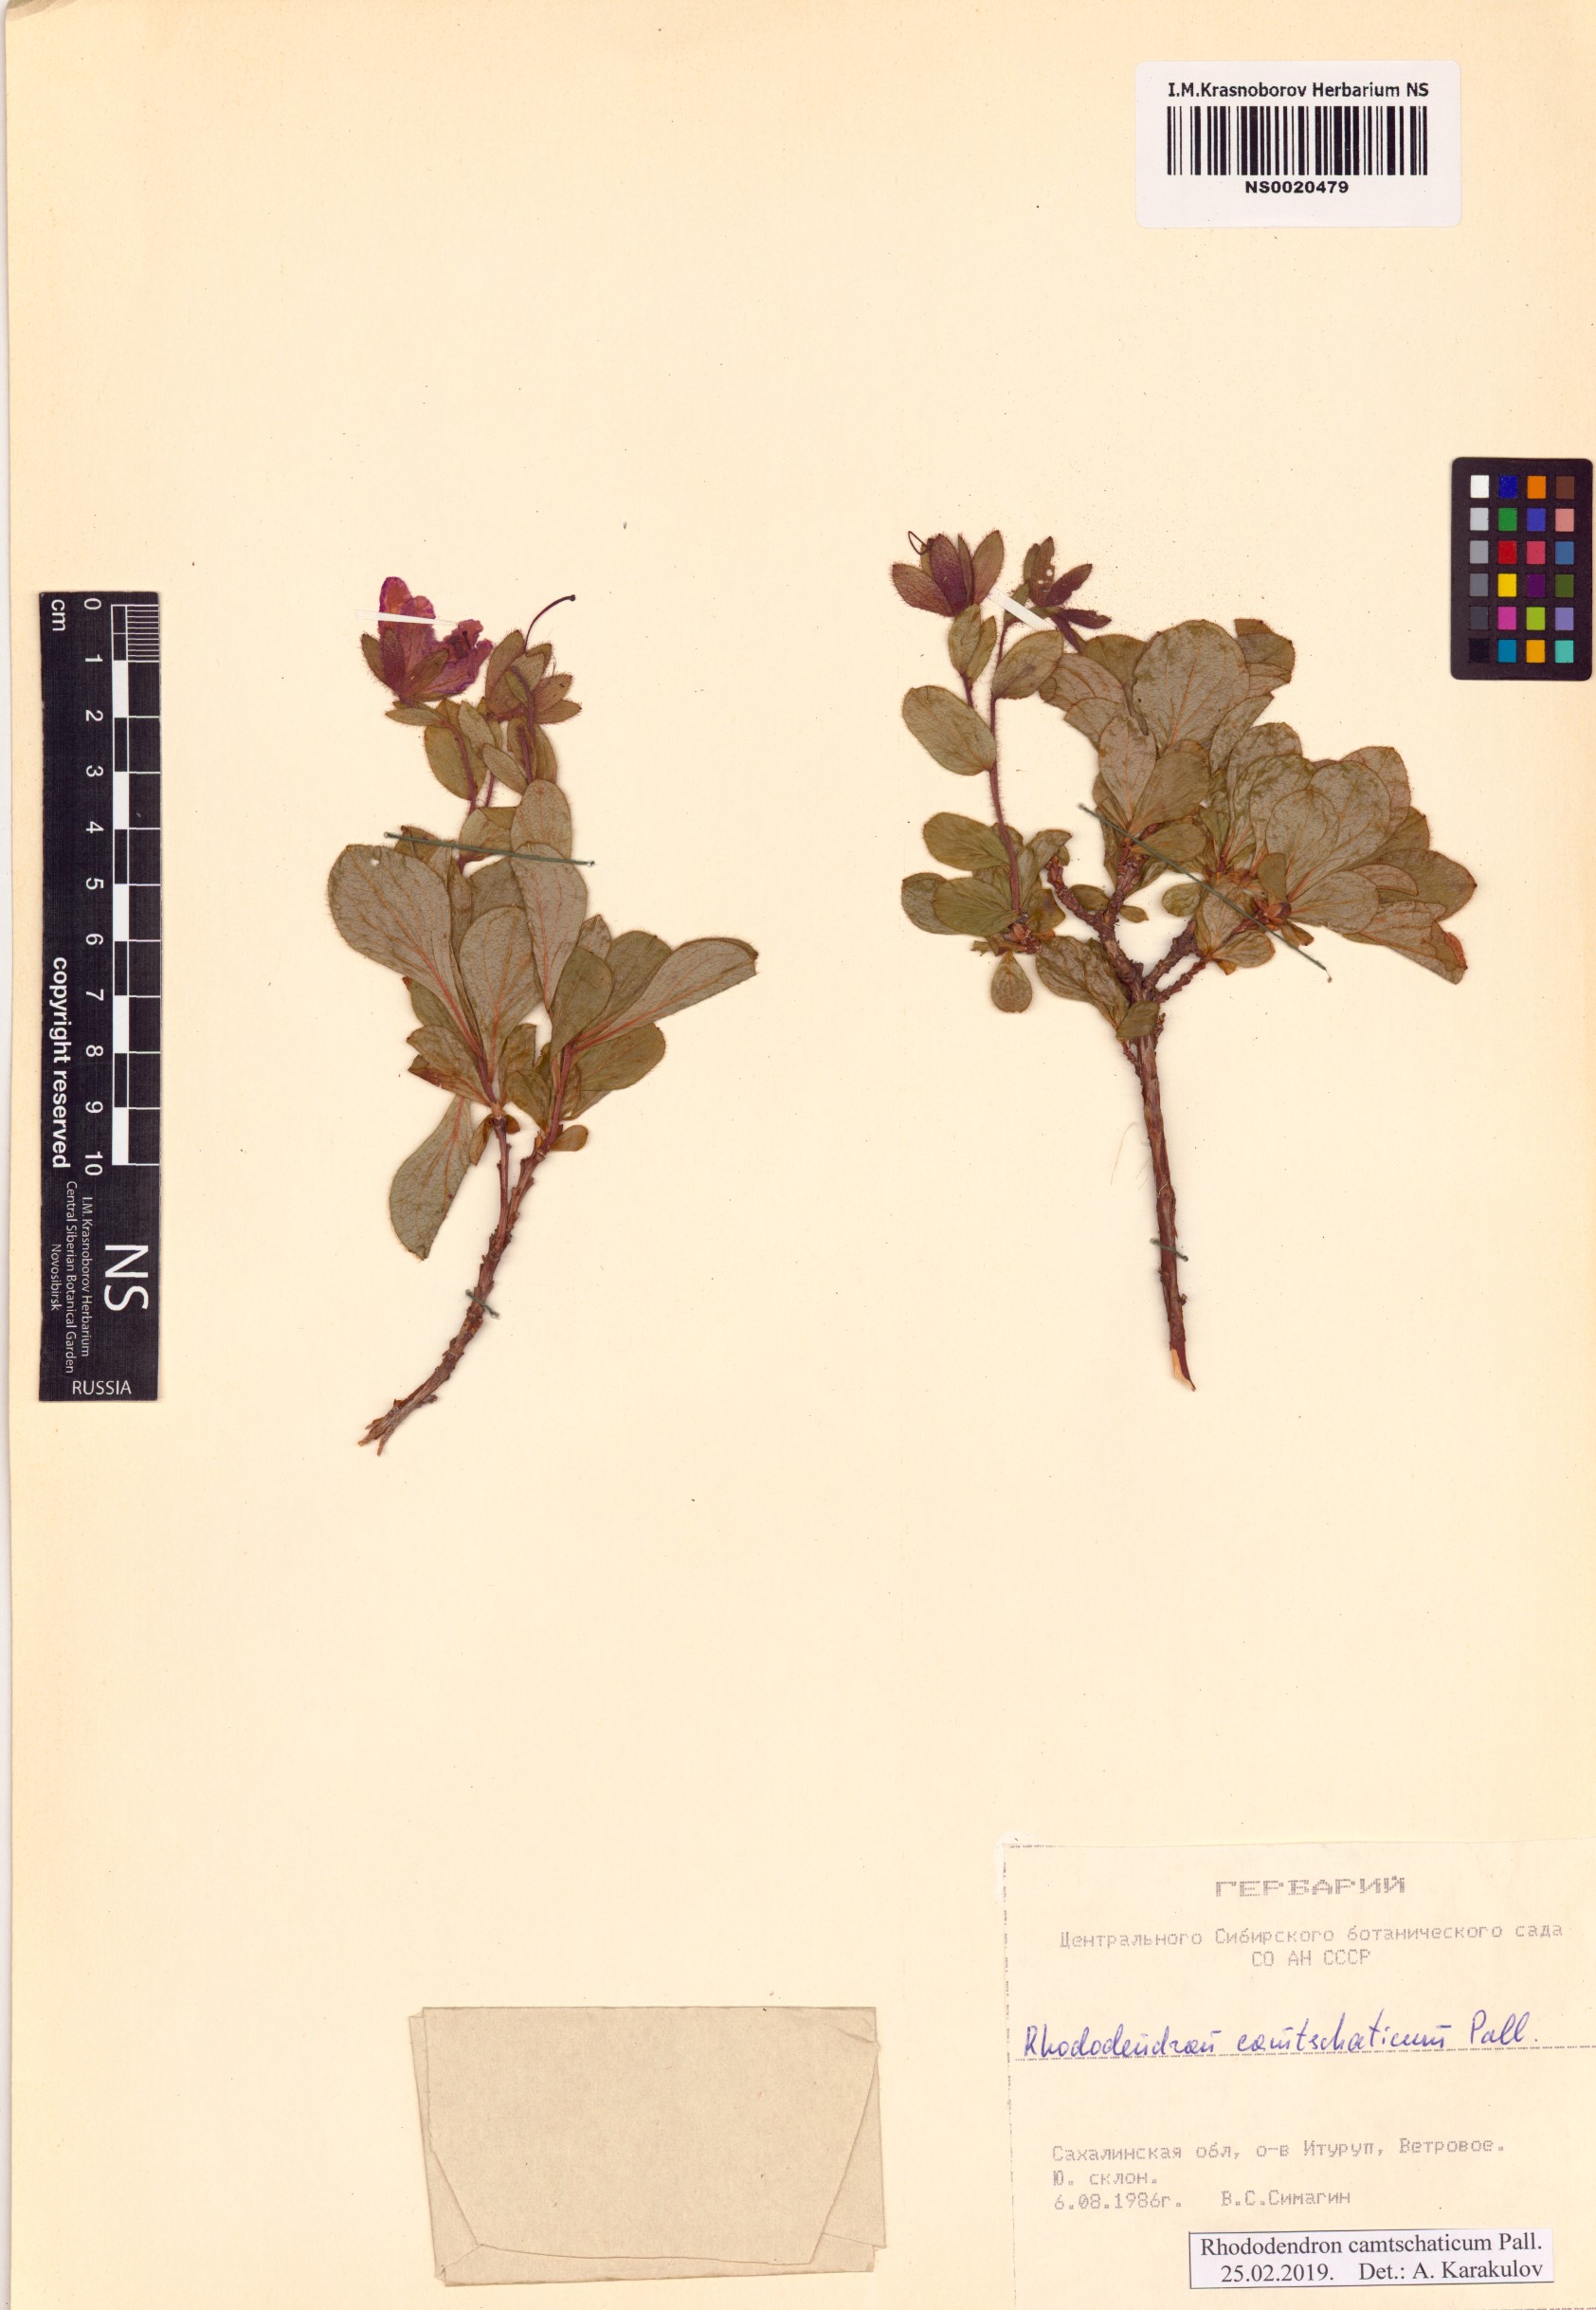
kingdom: Plantae
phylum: Tracheophyta
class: Magnoliopsida
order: Ericales
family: Ericaceae
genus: Rhododendron
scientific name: Rhododendron camtschaticum
